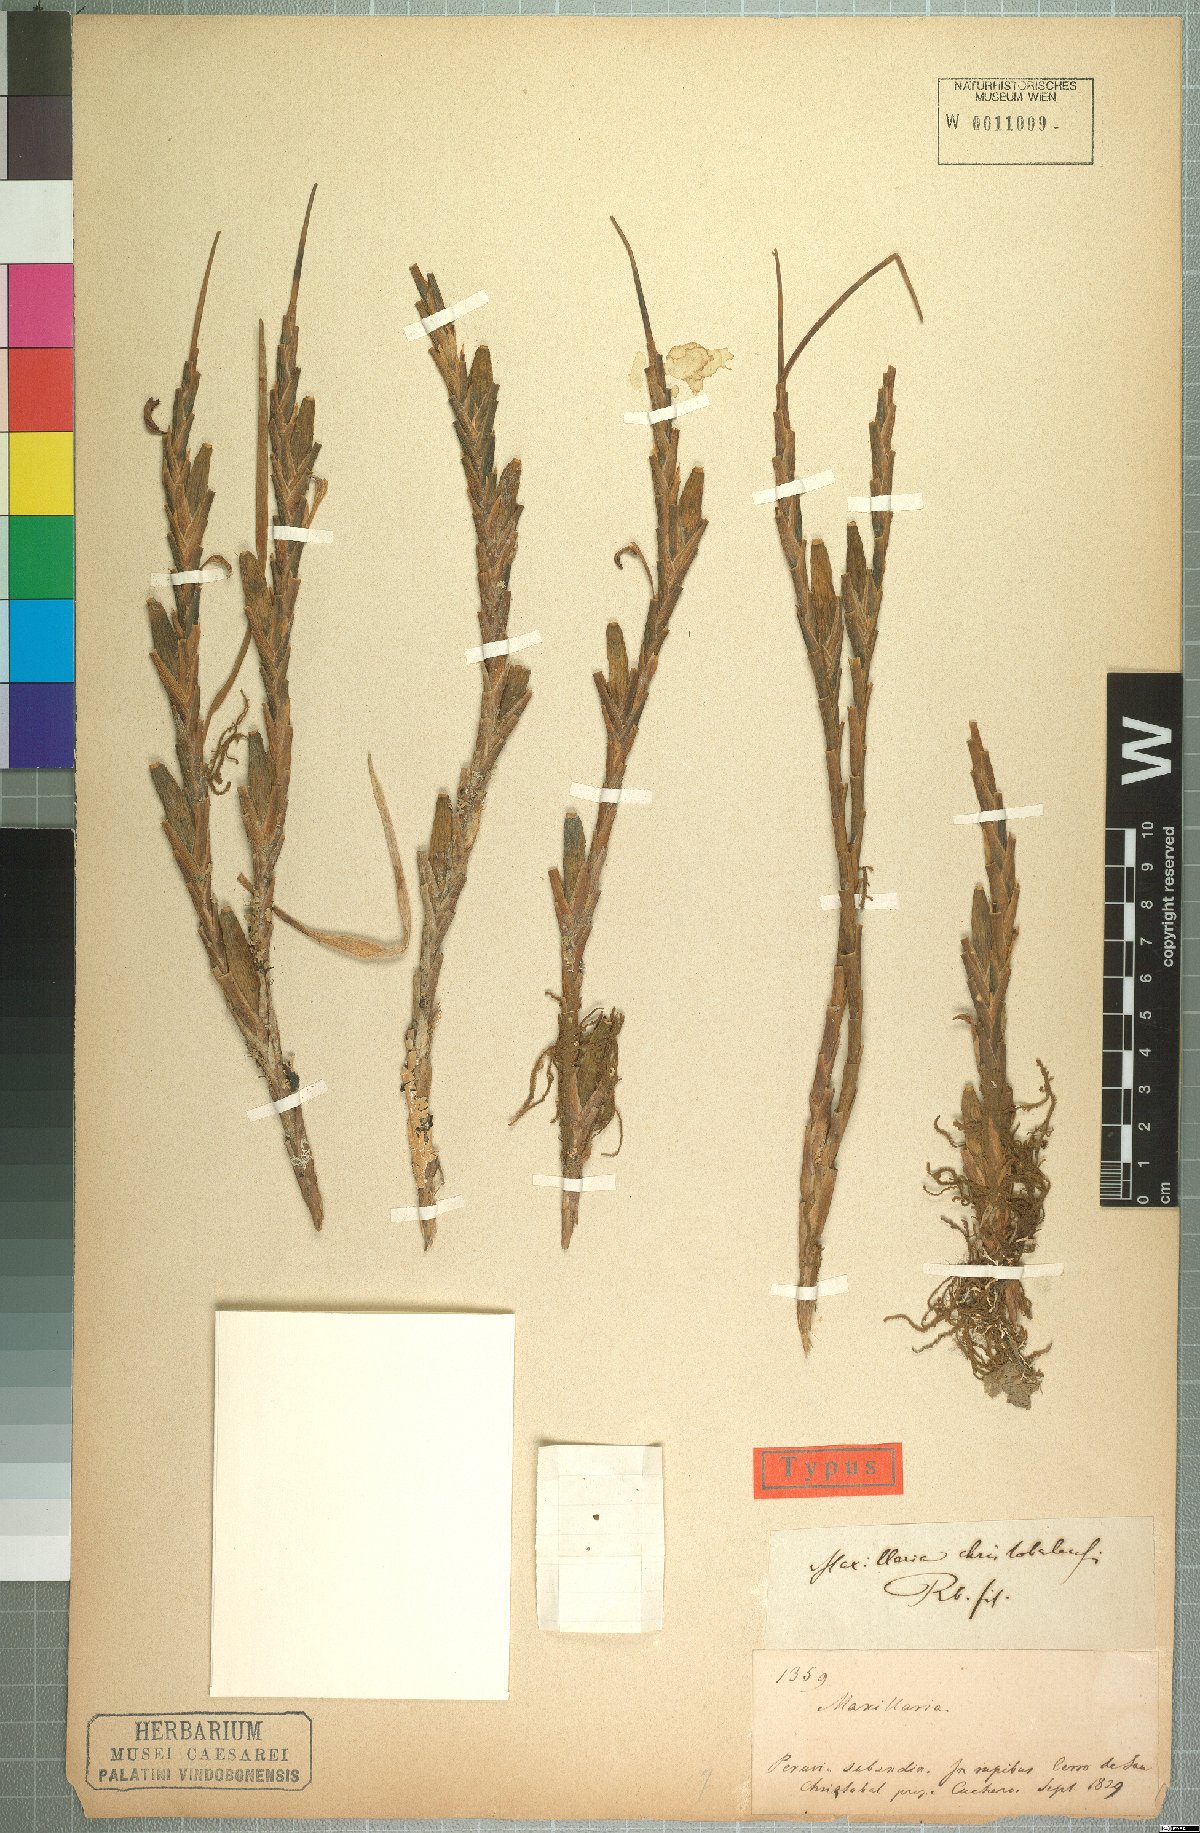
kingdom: Plantae
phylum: Tracheophyta
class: Liliopsida
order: Asparagales
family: Orchidaceae
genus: Maxillaria
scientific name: Maxillaria christobalensis
